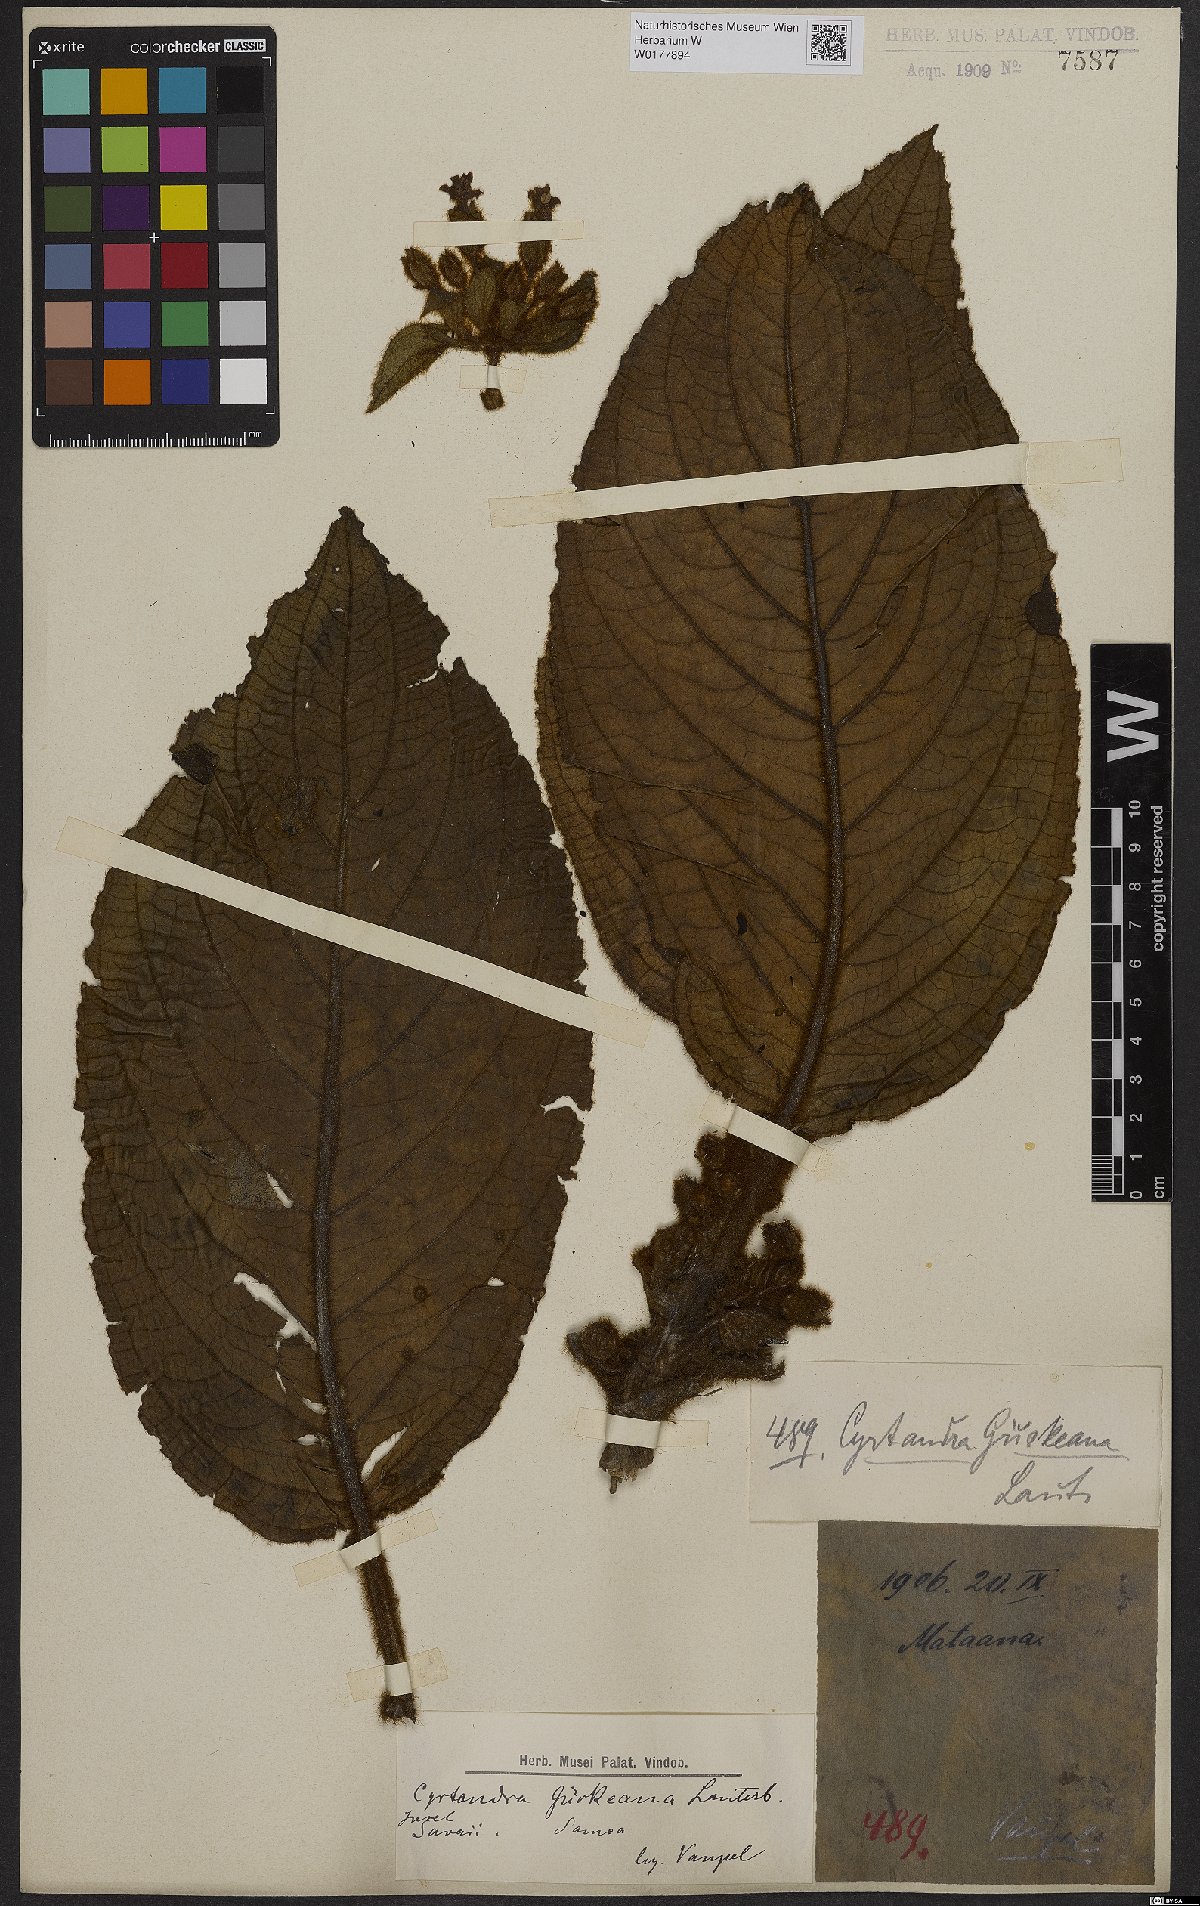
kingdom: Plantae
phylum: Tracheophyta
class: Magnoliopsida
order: Lamiales
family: Gesneriaceae
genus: Cyrtandra
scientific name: Cyrtandra guerkeana
